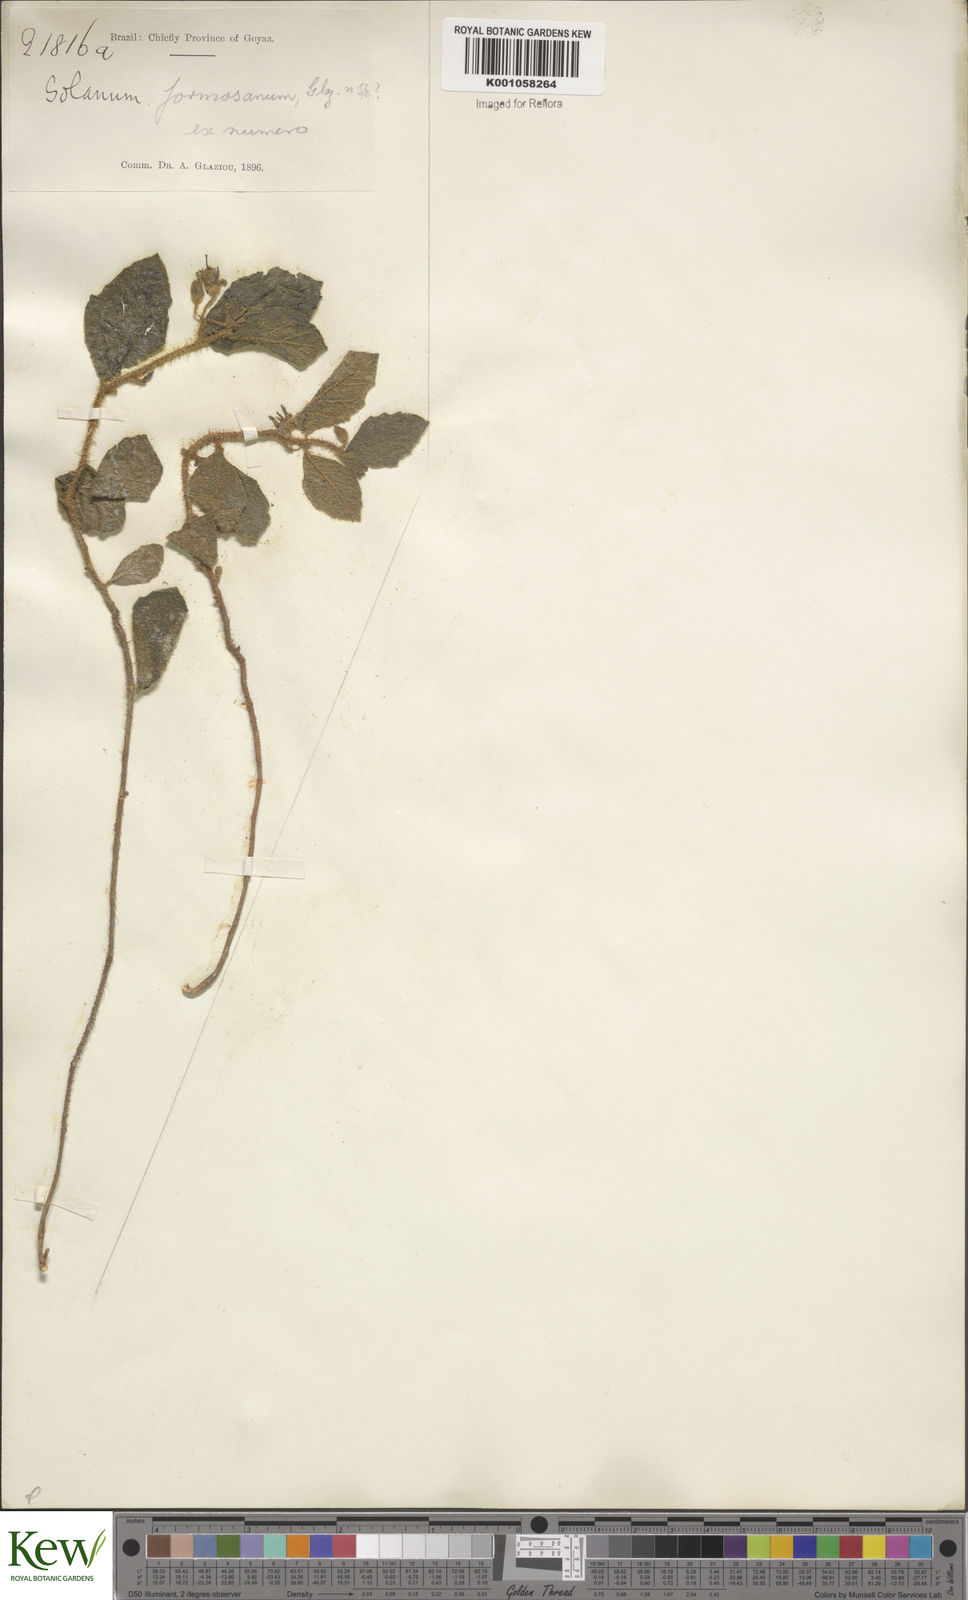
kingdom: Plantae
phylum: Tracheophyta
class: Magnoliopsida
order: Solanales
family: Solanaceae
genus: Solanum
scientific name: Solanum
